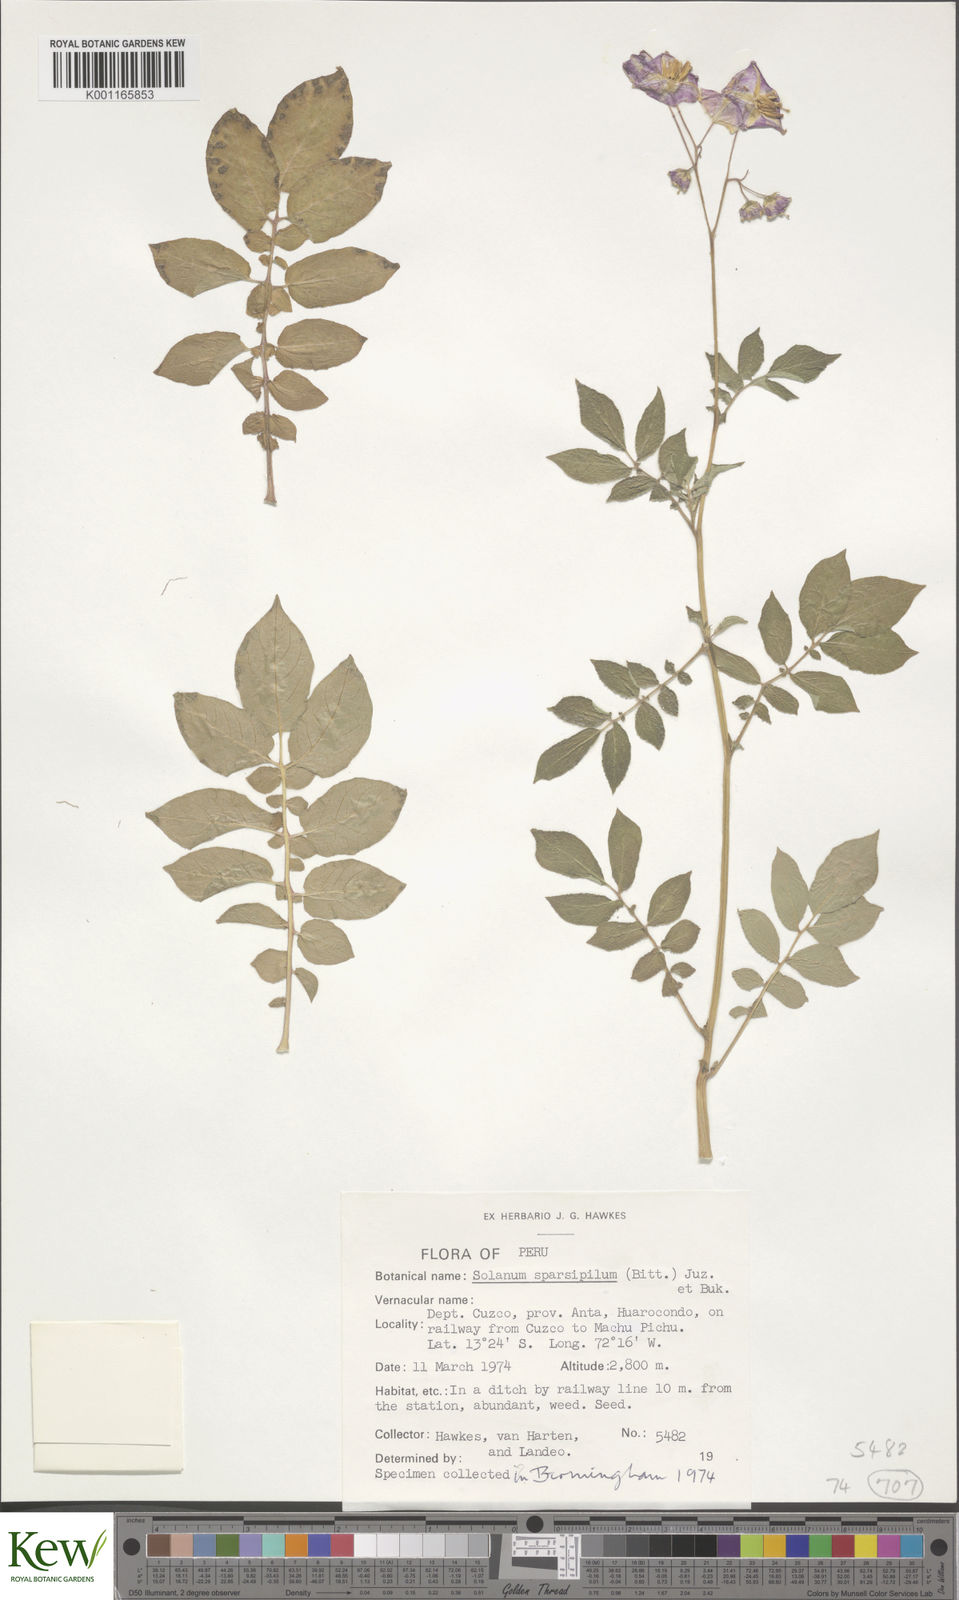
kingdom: Plantae
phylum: Tracheophyta
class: Magnoliopsida
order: Solanales
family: Solanaceae
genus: Solanum
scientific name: Solanum brevicaule
